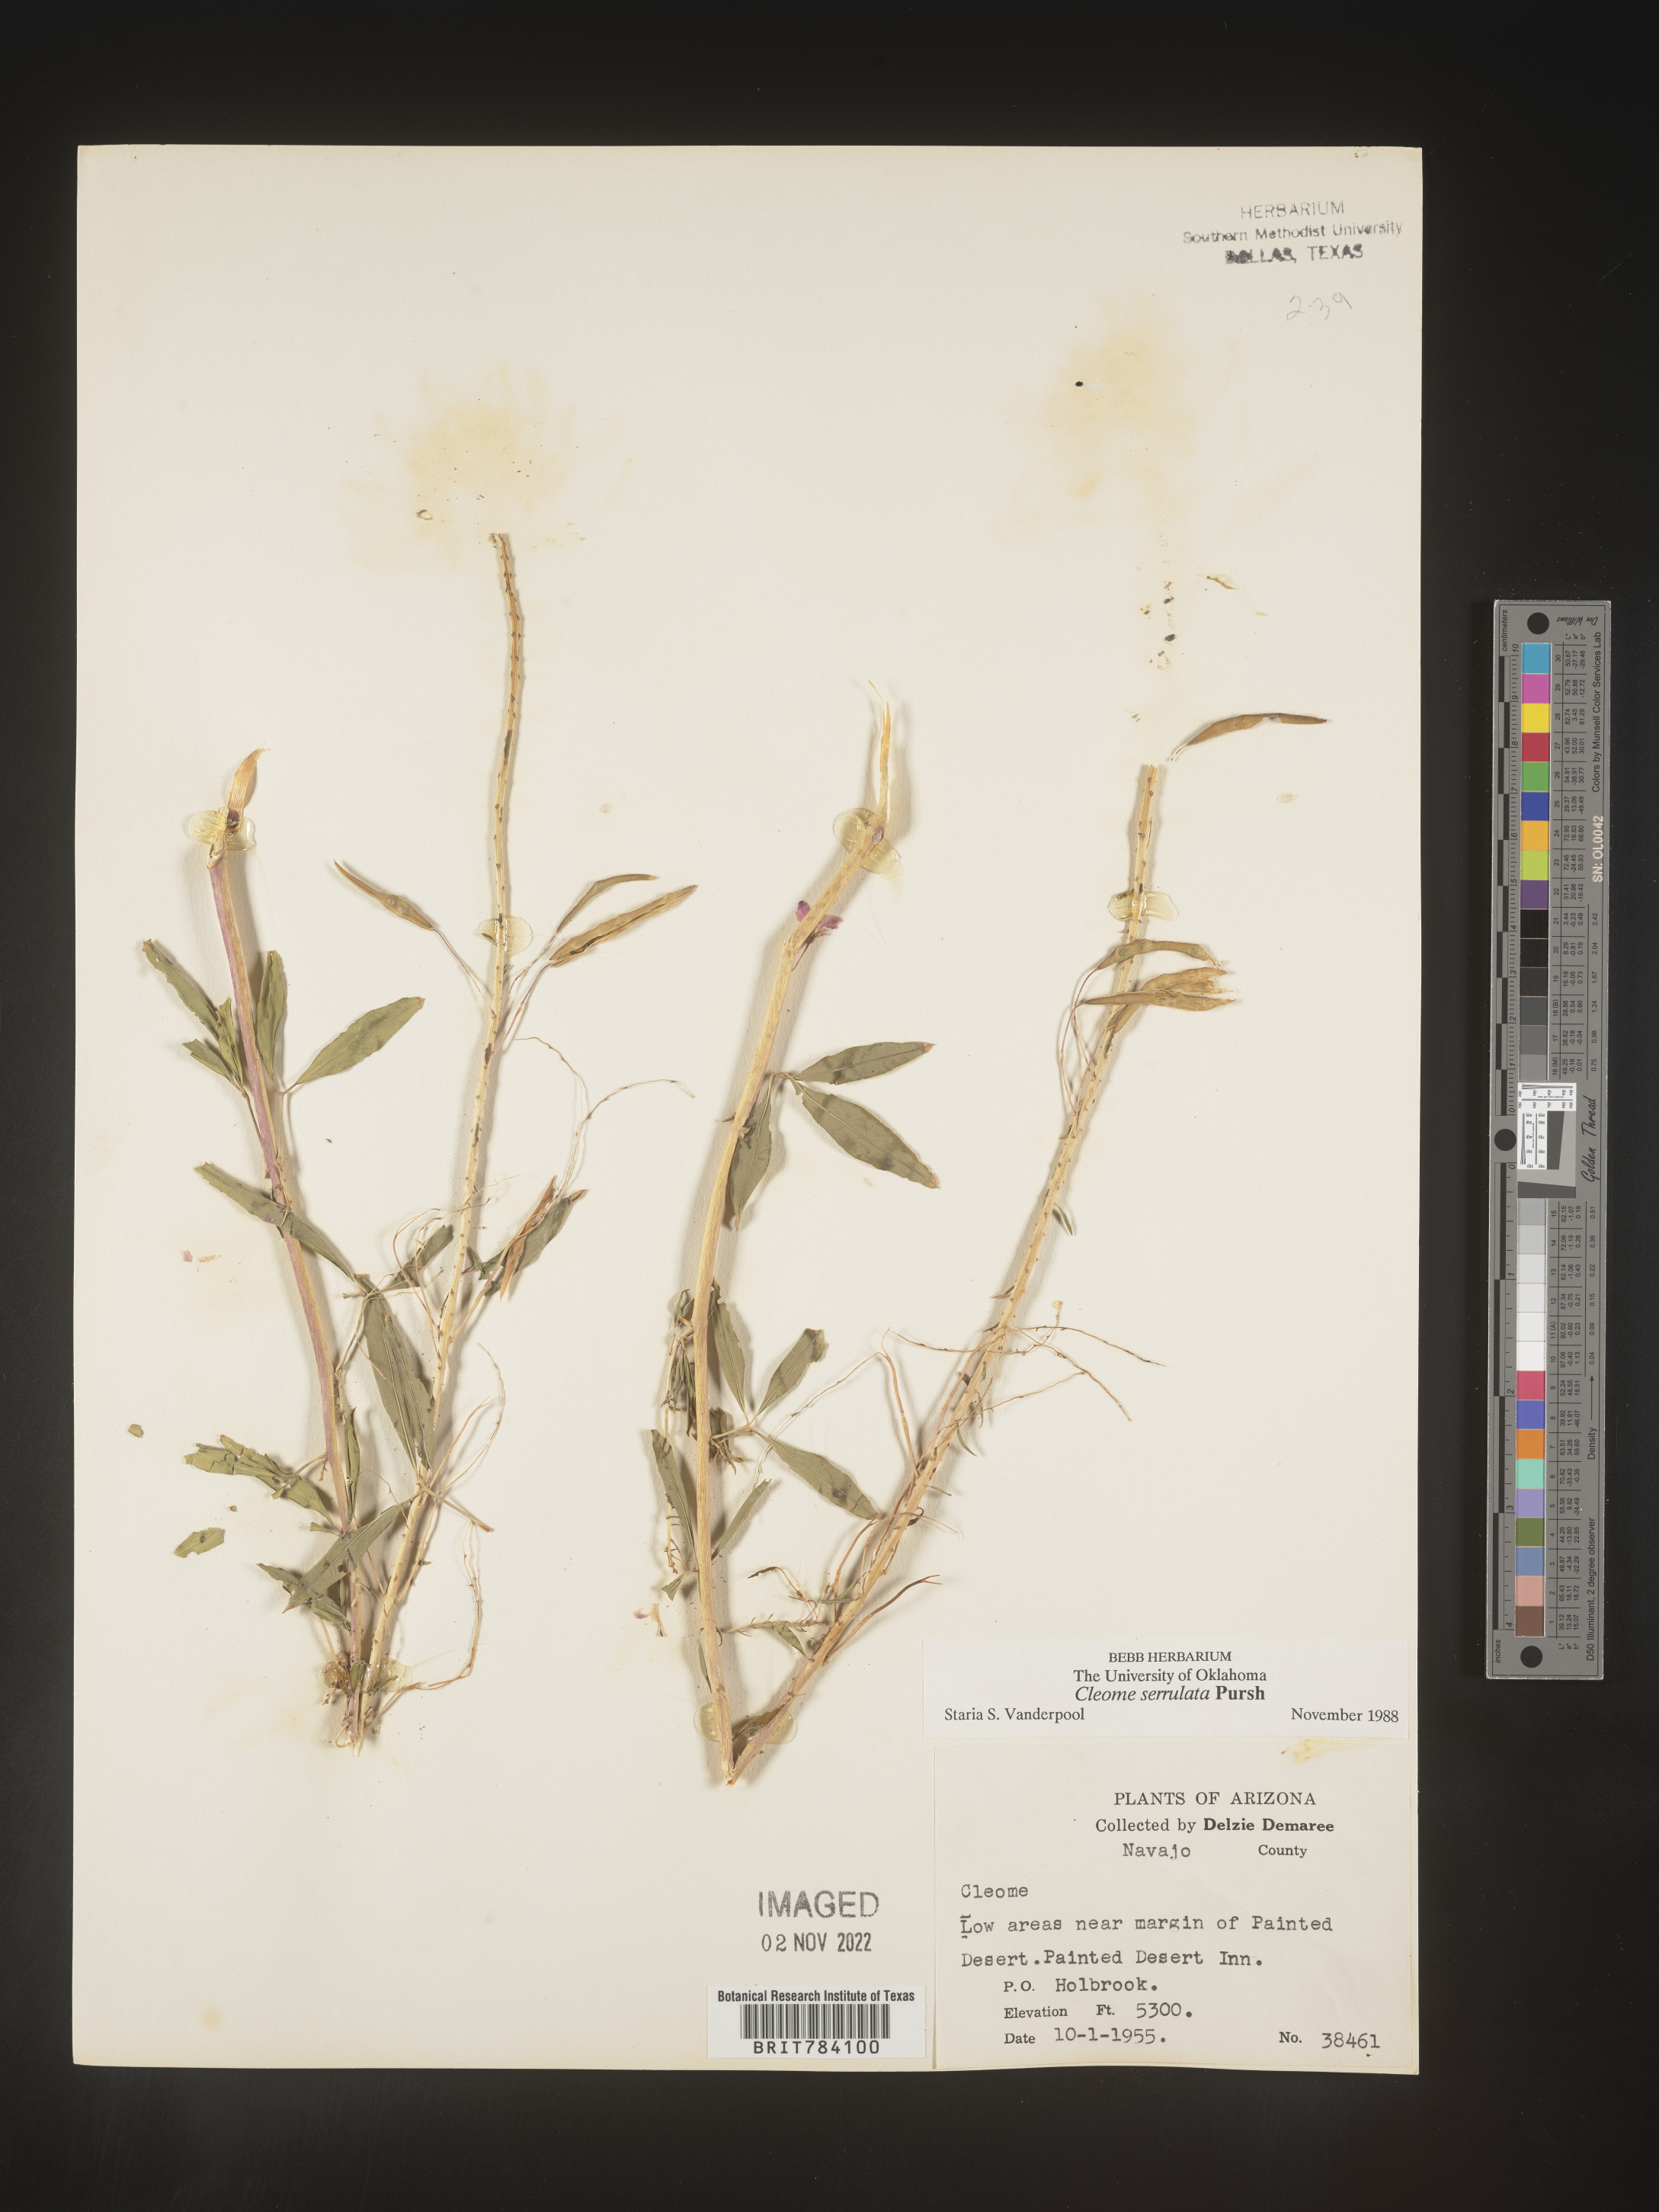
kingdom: Plantae
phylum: Tracheophyta
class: Magnoliopsida
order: Brassicales
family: Cleomaceae
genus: Cleomella
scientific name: Cleomella serrulata
